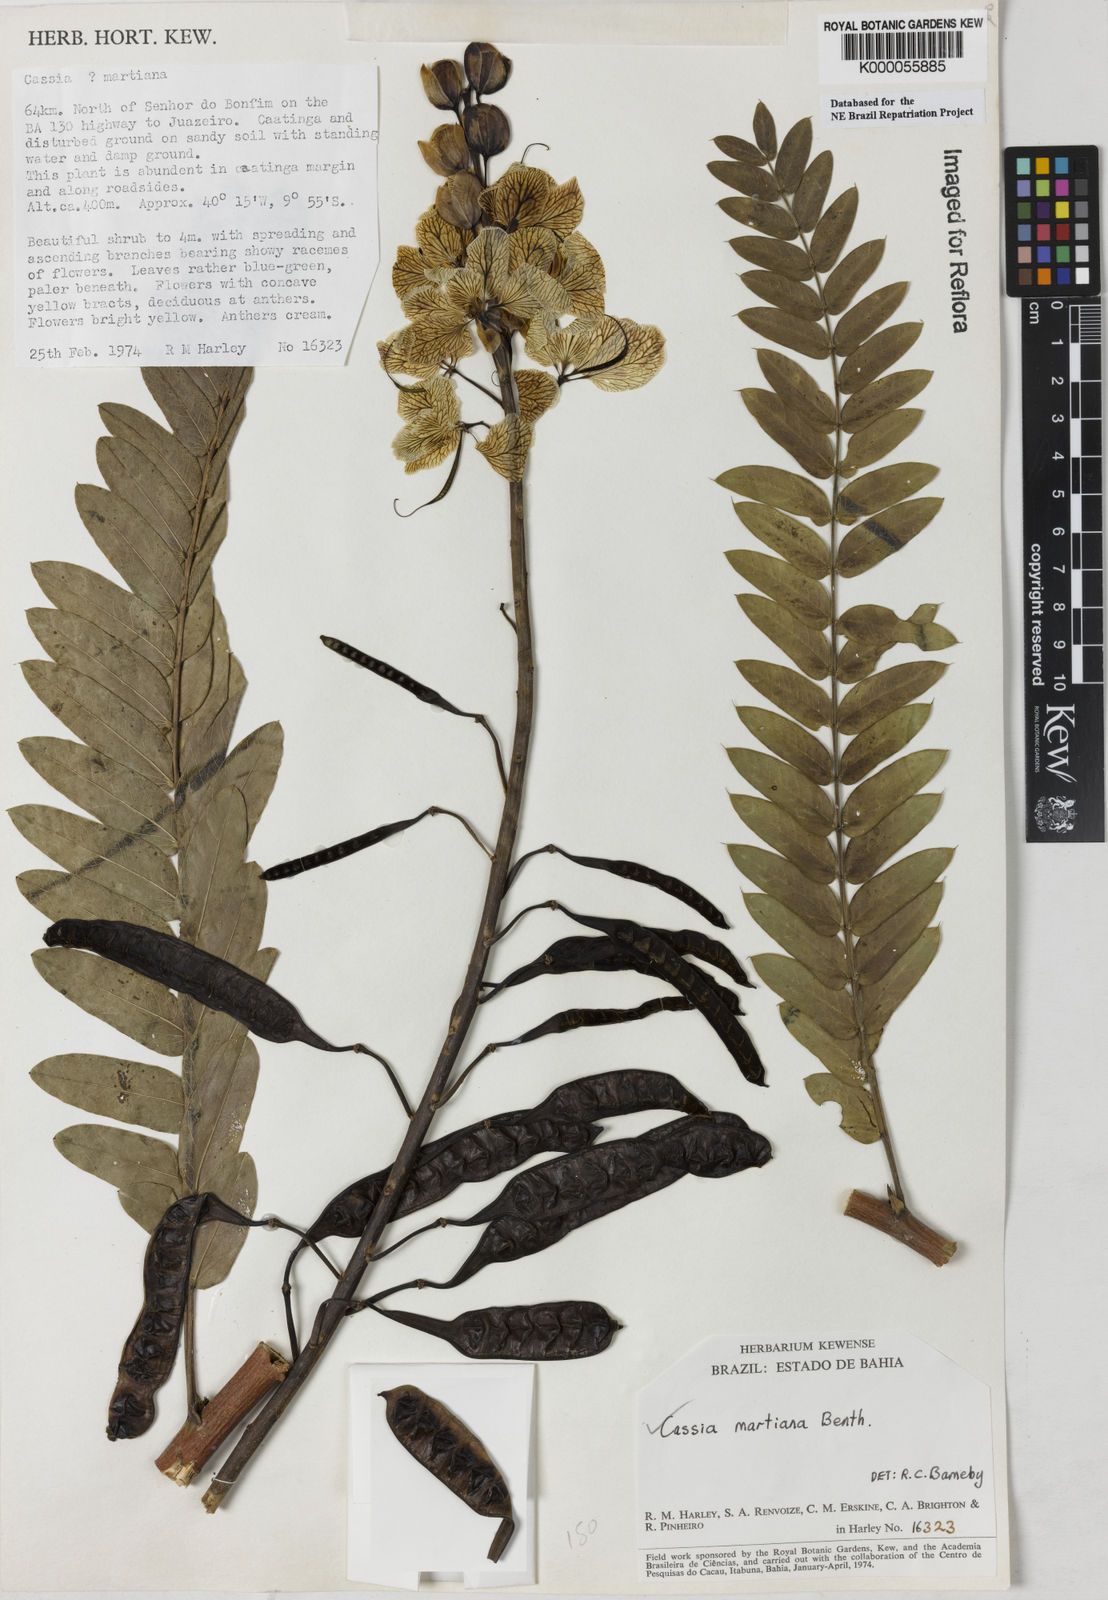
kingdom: Plantae
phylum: Tracheophyta
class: Magnoliopsida
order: Fabales
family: Fabaceae
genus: Senna
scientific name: Senna martiana
